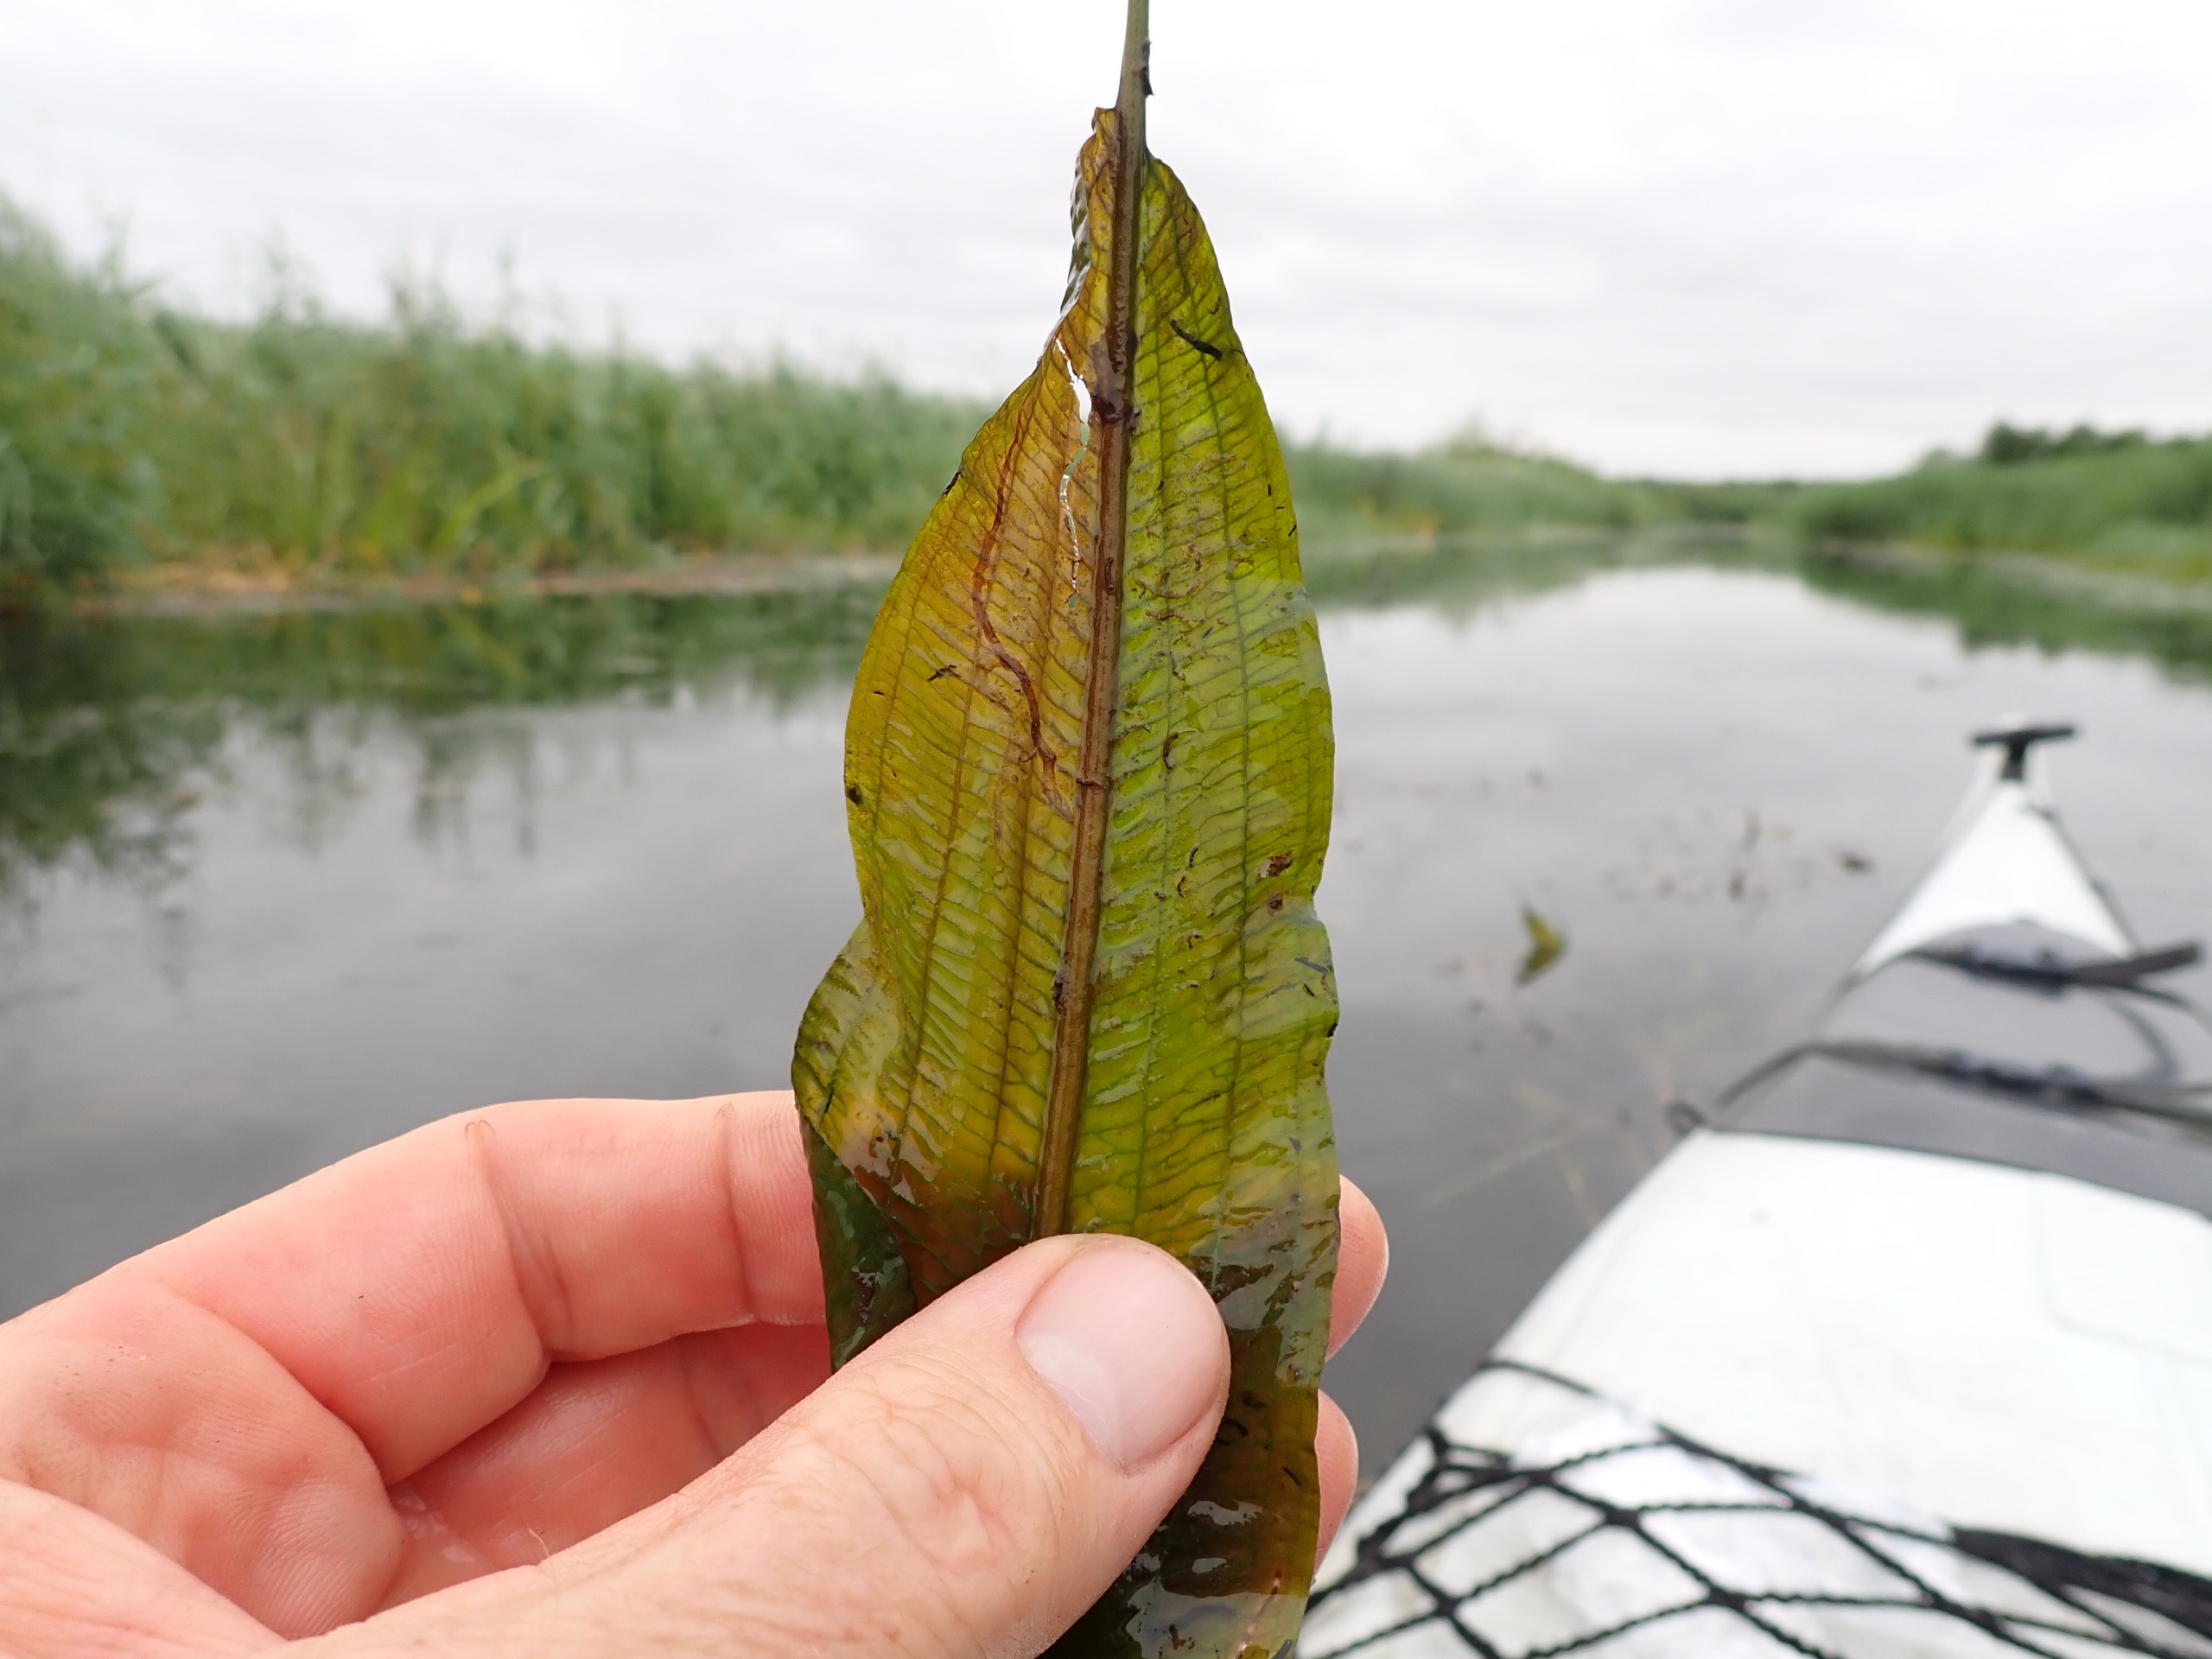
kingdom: Plantae
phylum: Tracheophyta
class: Liliopsida
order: Alismatales
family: Potamogetonaceae
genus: Potamogeton
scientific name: Potamogeton lucens
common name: Glinsende vandaks
